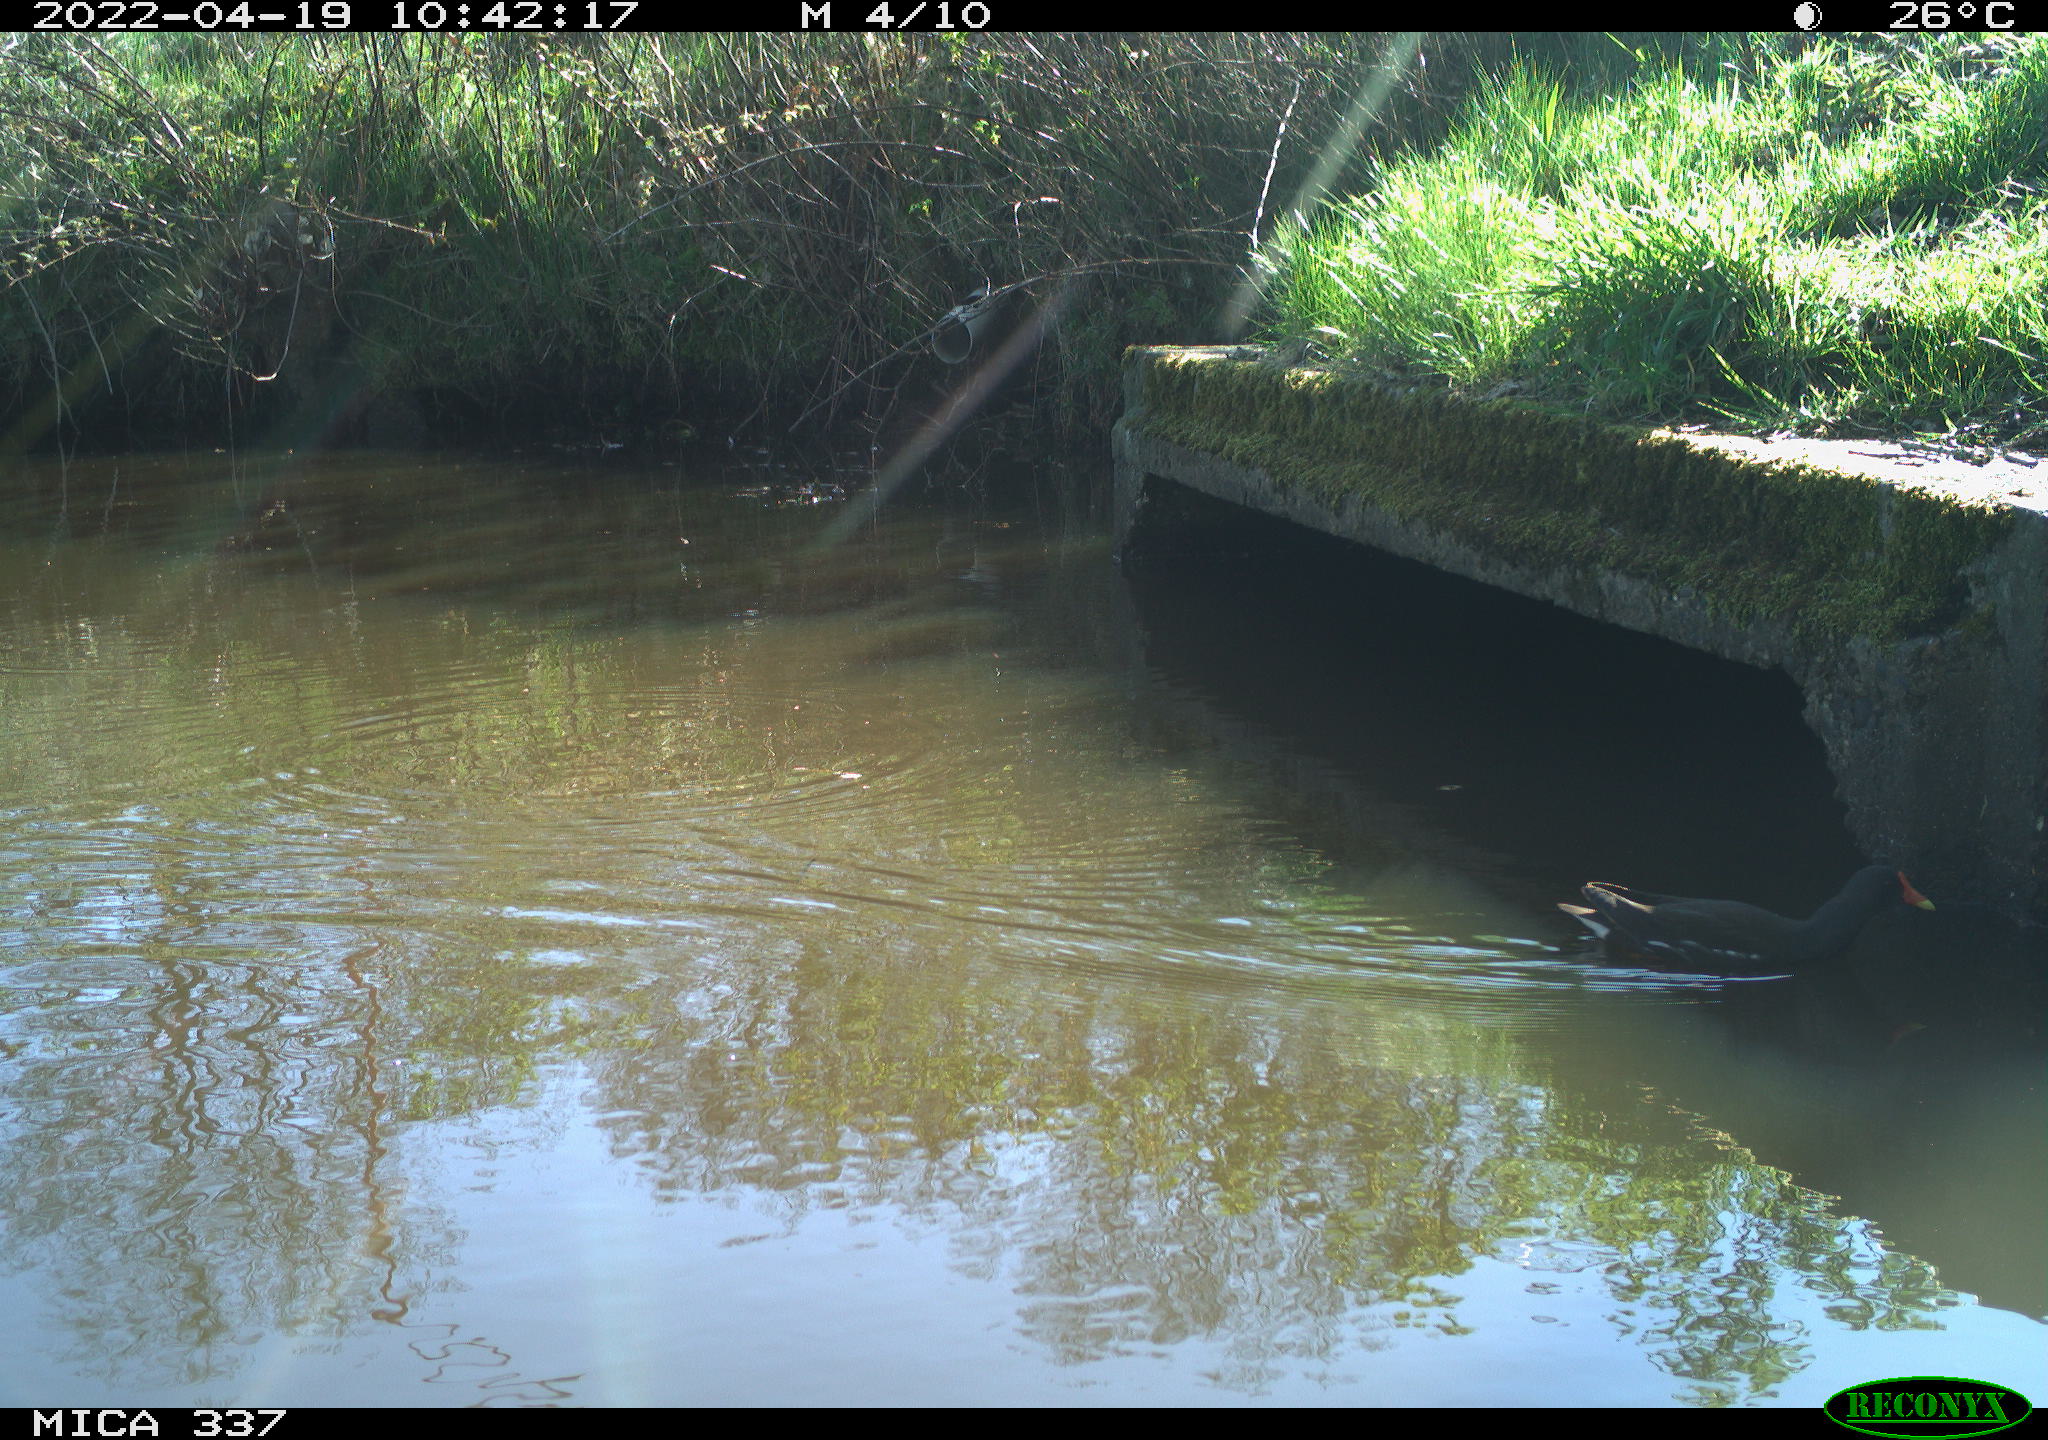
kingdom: Animalia
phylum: Chordata
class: Aves
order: Gruiformes
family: Rallidae
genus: Gallinula
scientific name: Gallinula chloropus
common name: Common moorhen
